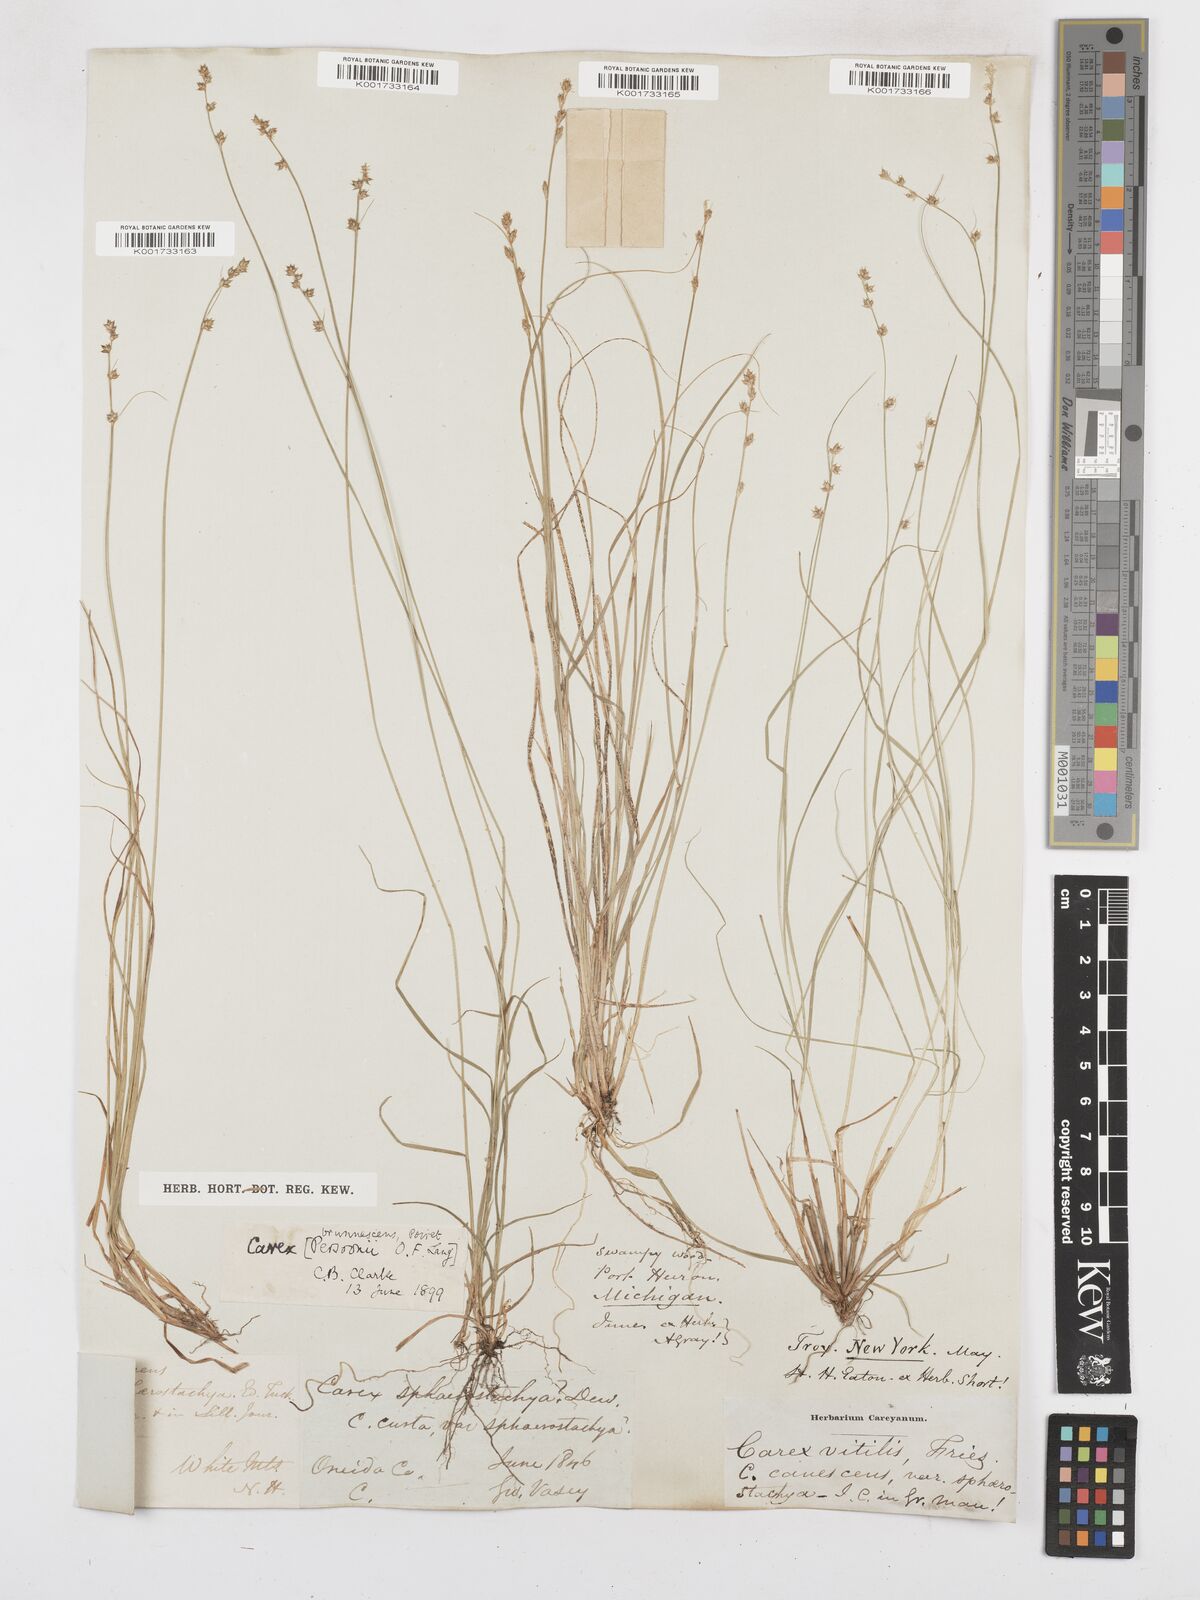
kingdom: Plantae
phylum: Tracheophyta
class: Liliopsida
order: Poales
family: Cyperaceae
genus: Carex
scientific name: Carex brunnescens
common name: Brown sedge
